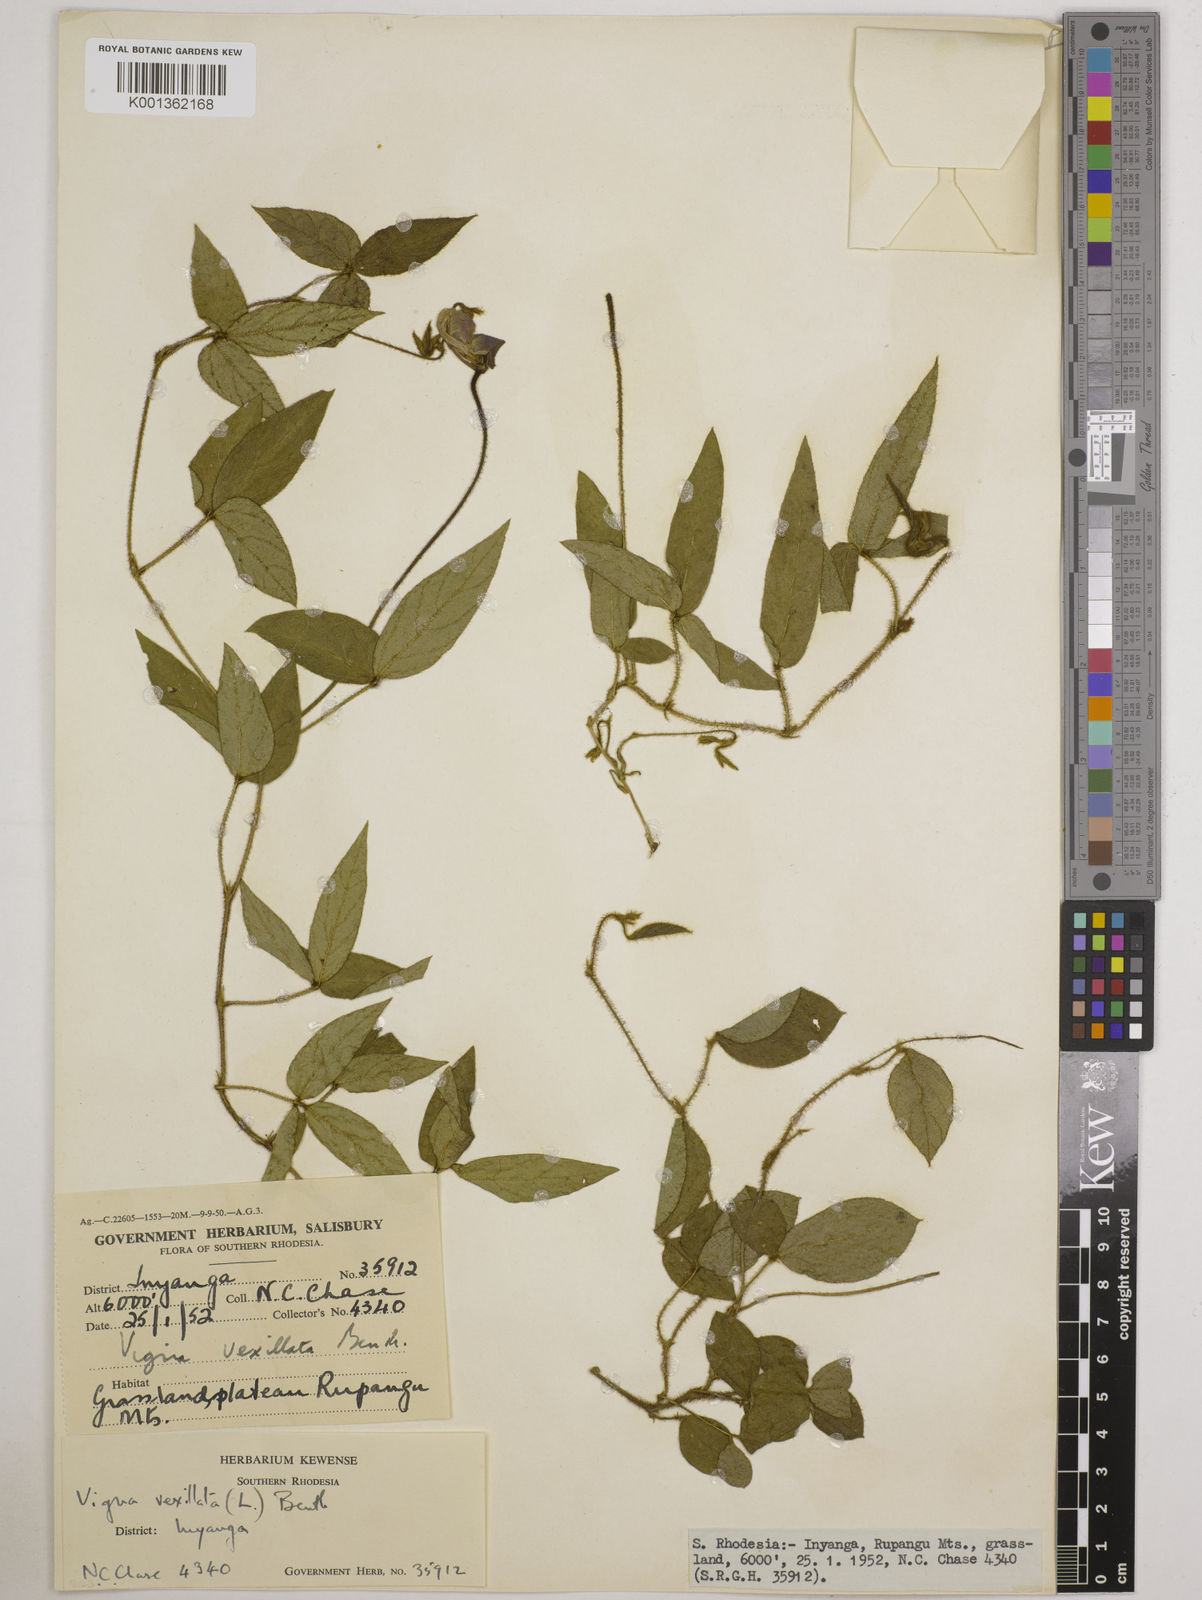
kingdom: Plantae
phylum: Tracheophyta
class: Magnoliopsida
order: Fabales
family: Fabaceae
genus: Vigna
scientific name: Vigna vexillata
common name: Zombi pea
